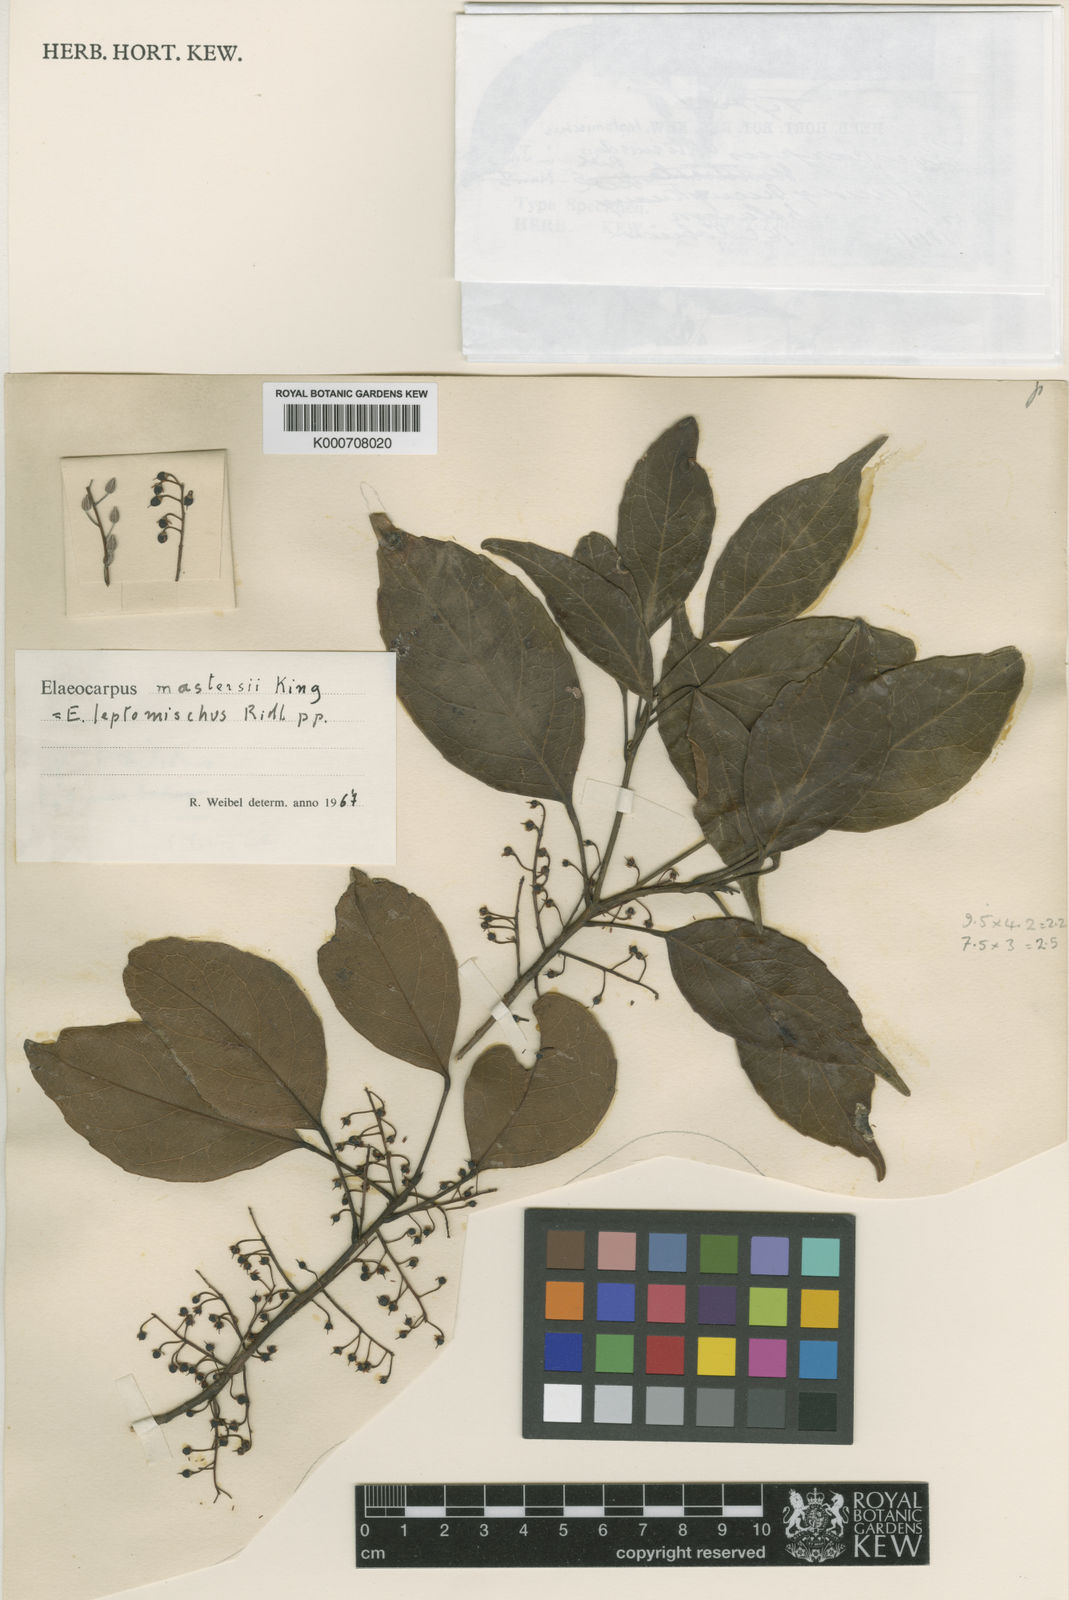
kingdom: Plantae
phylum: Tracheophyta
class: Magnoliopsida
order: Oxalidales
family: Elaeocarpaceae
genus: Elaeocarpus
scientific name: Elaeocarpus mastersii
